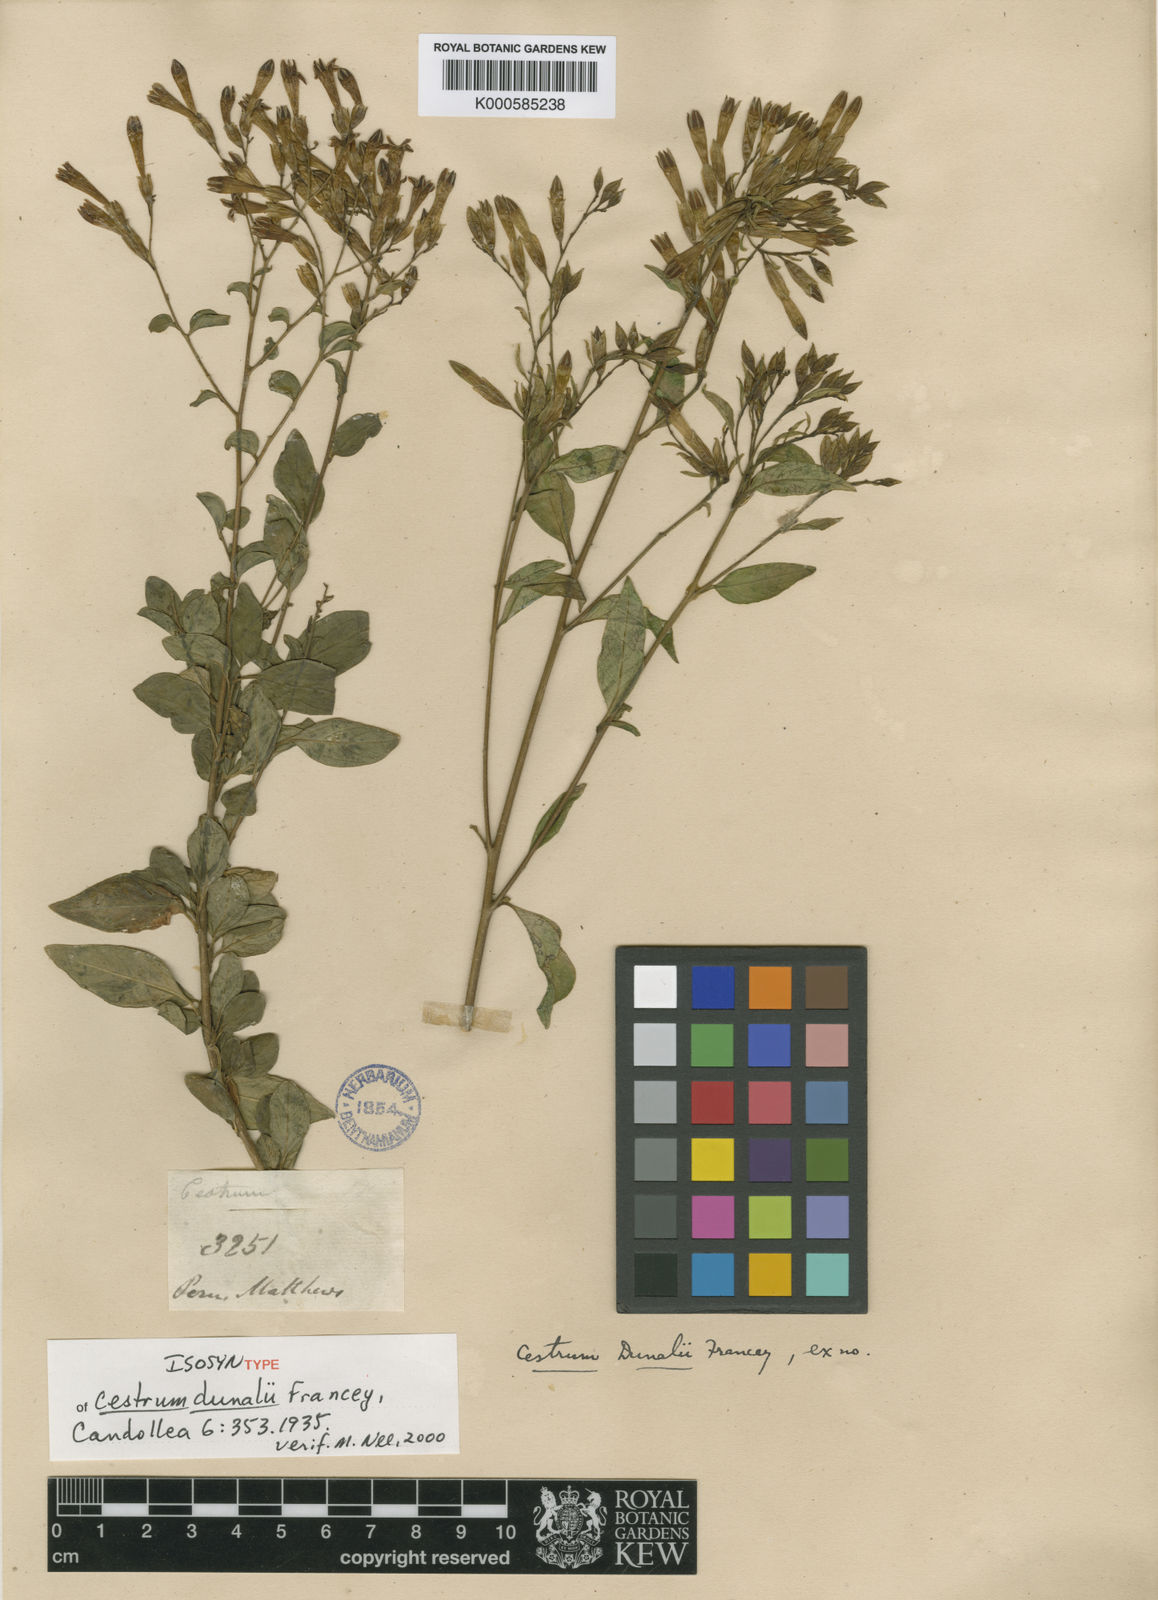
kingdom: Plantae
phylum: Tracheophyta
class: Magnoliopsida
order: Solanales
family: Solanaceae
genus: Cestrum
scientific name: Cestrum dunalii
